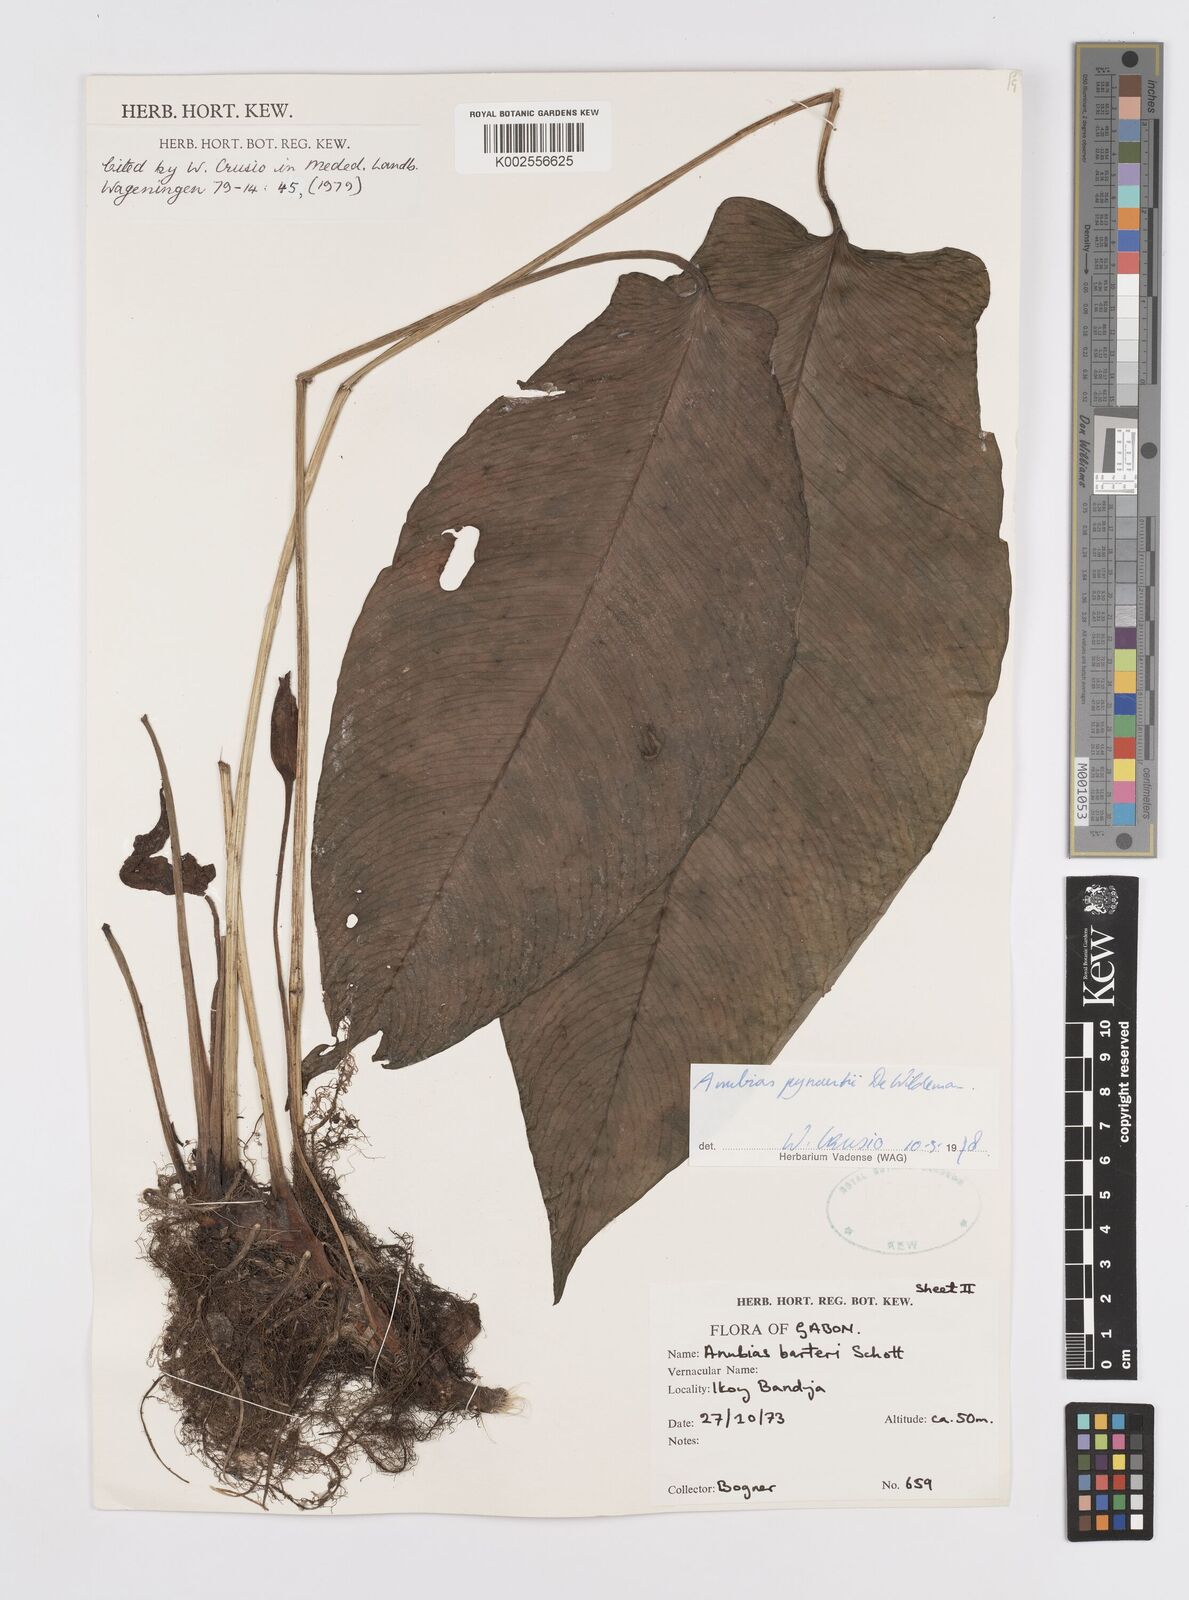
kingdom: Plantae
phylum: Tracheophyta
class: Liliopsida
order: Alismatales
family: Araceae
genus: Anubias
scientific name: Anubias pynaertii
